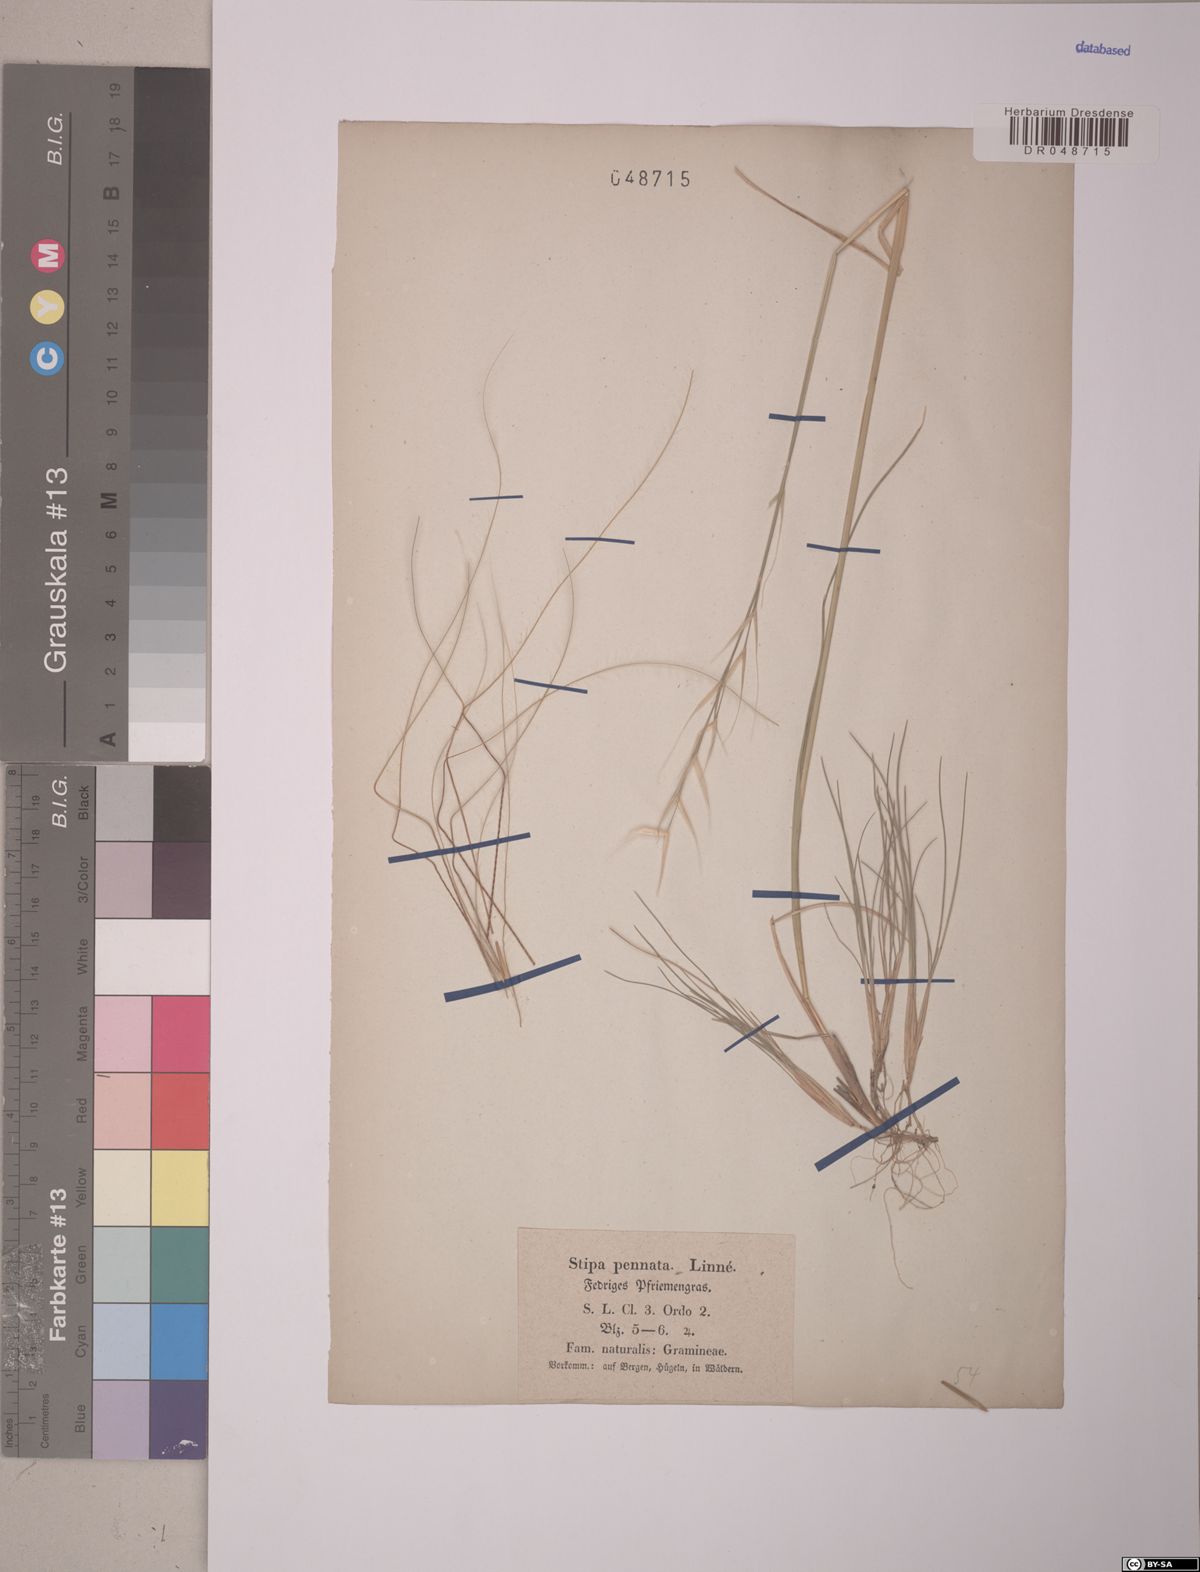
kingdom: Plantae
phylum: Tracheophyta
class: Liliopsida
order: Poales
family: Poaceae
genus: Stipa
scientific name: Stipa pennata
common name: European feather grass
